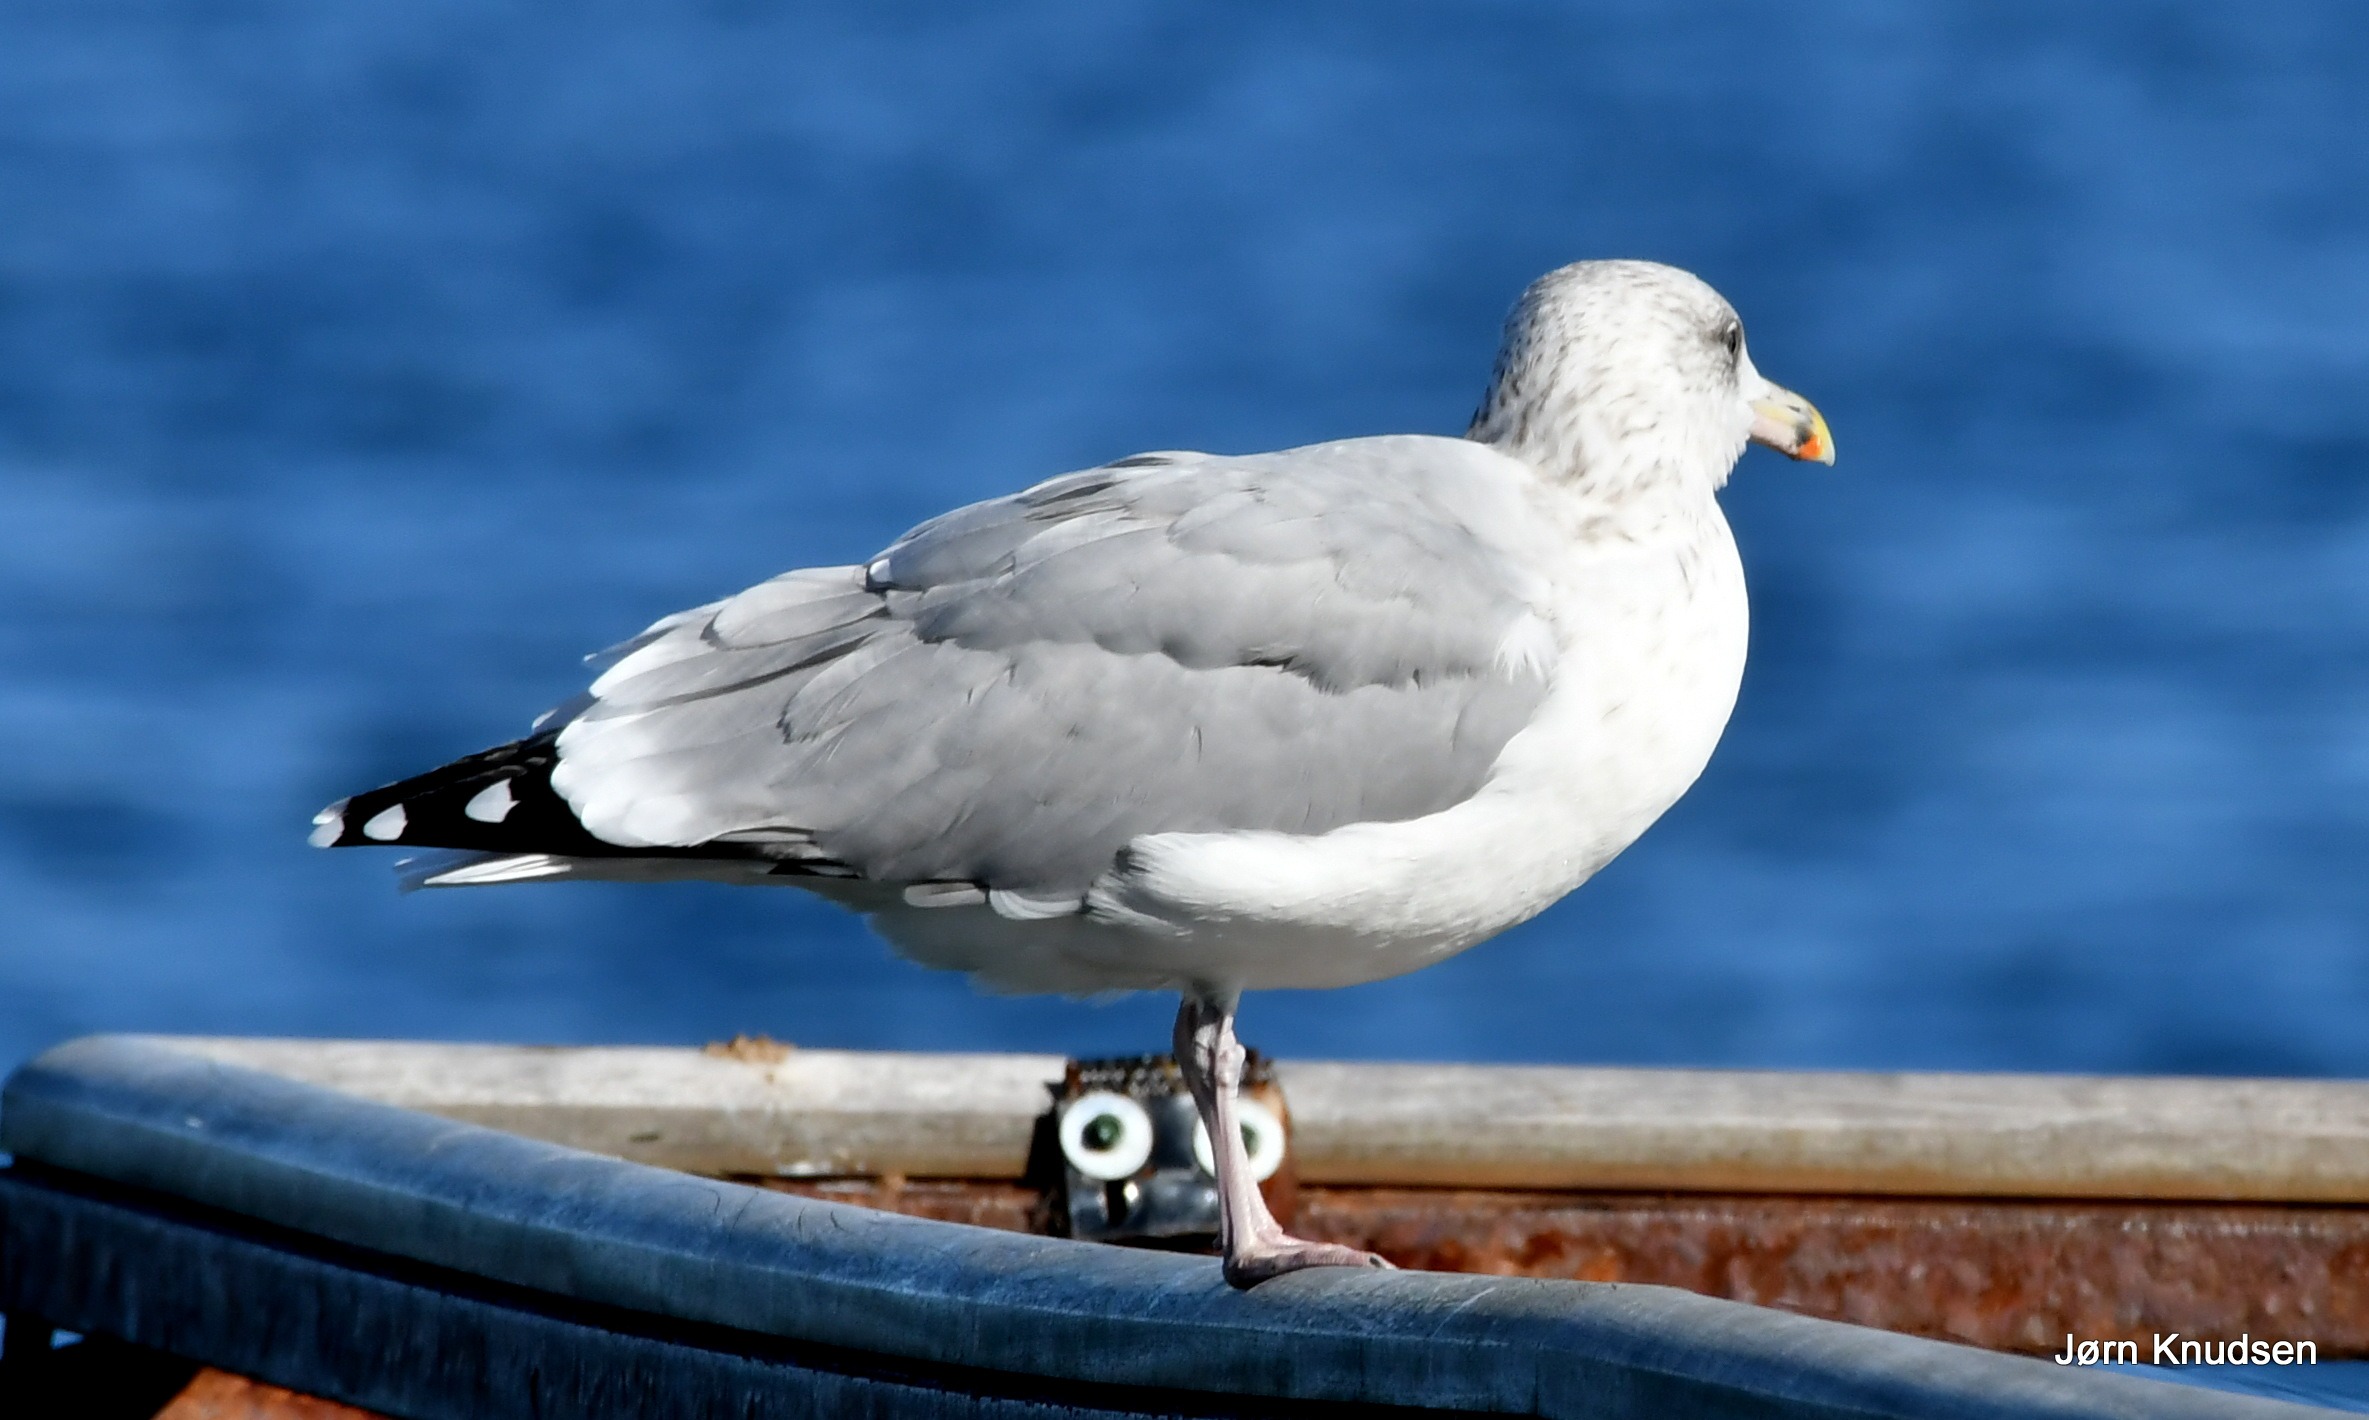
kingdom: Animalia
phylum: Chordata
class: Aves
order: Charadriiformes
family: Laridae
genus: Larus
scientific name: Larus argentatus
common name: Sølvmåge
